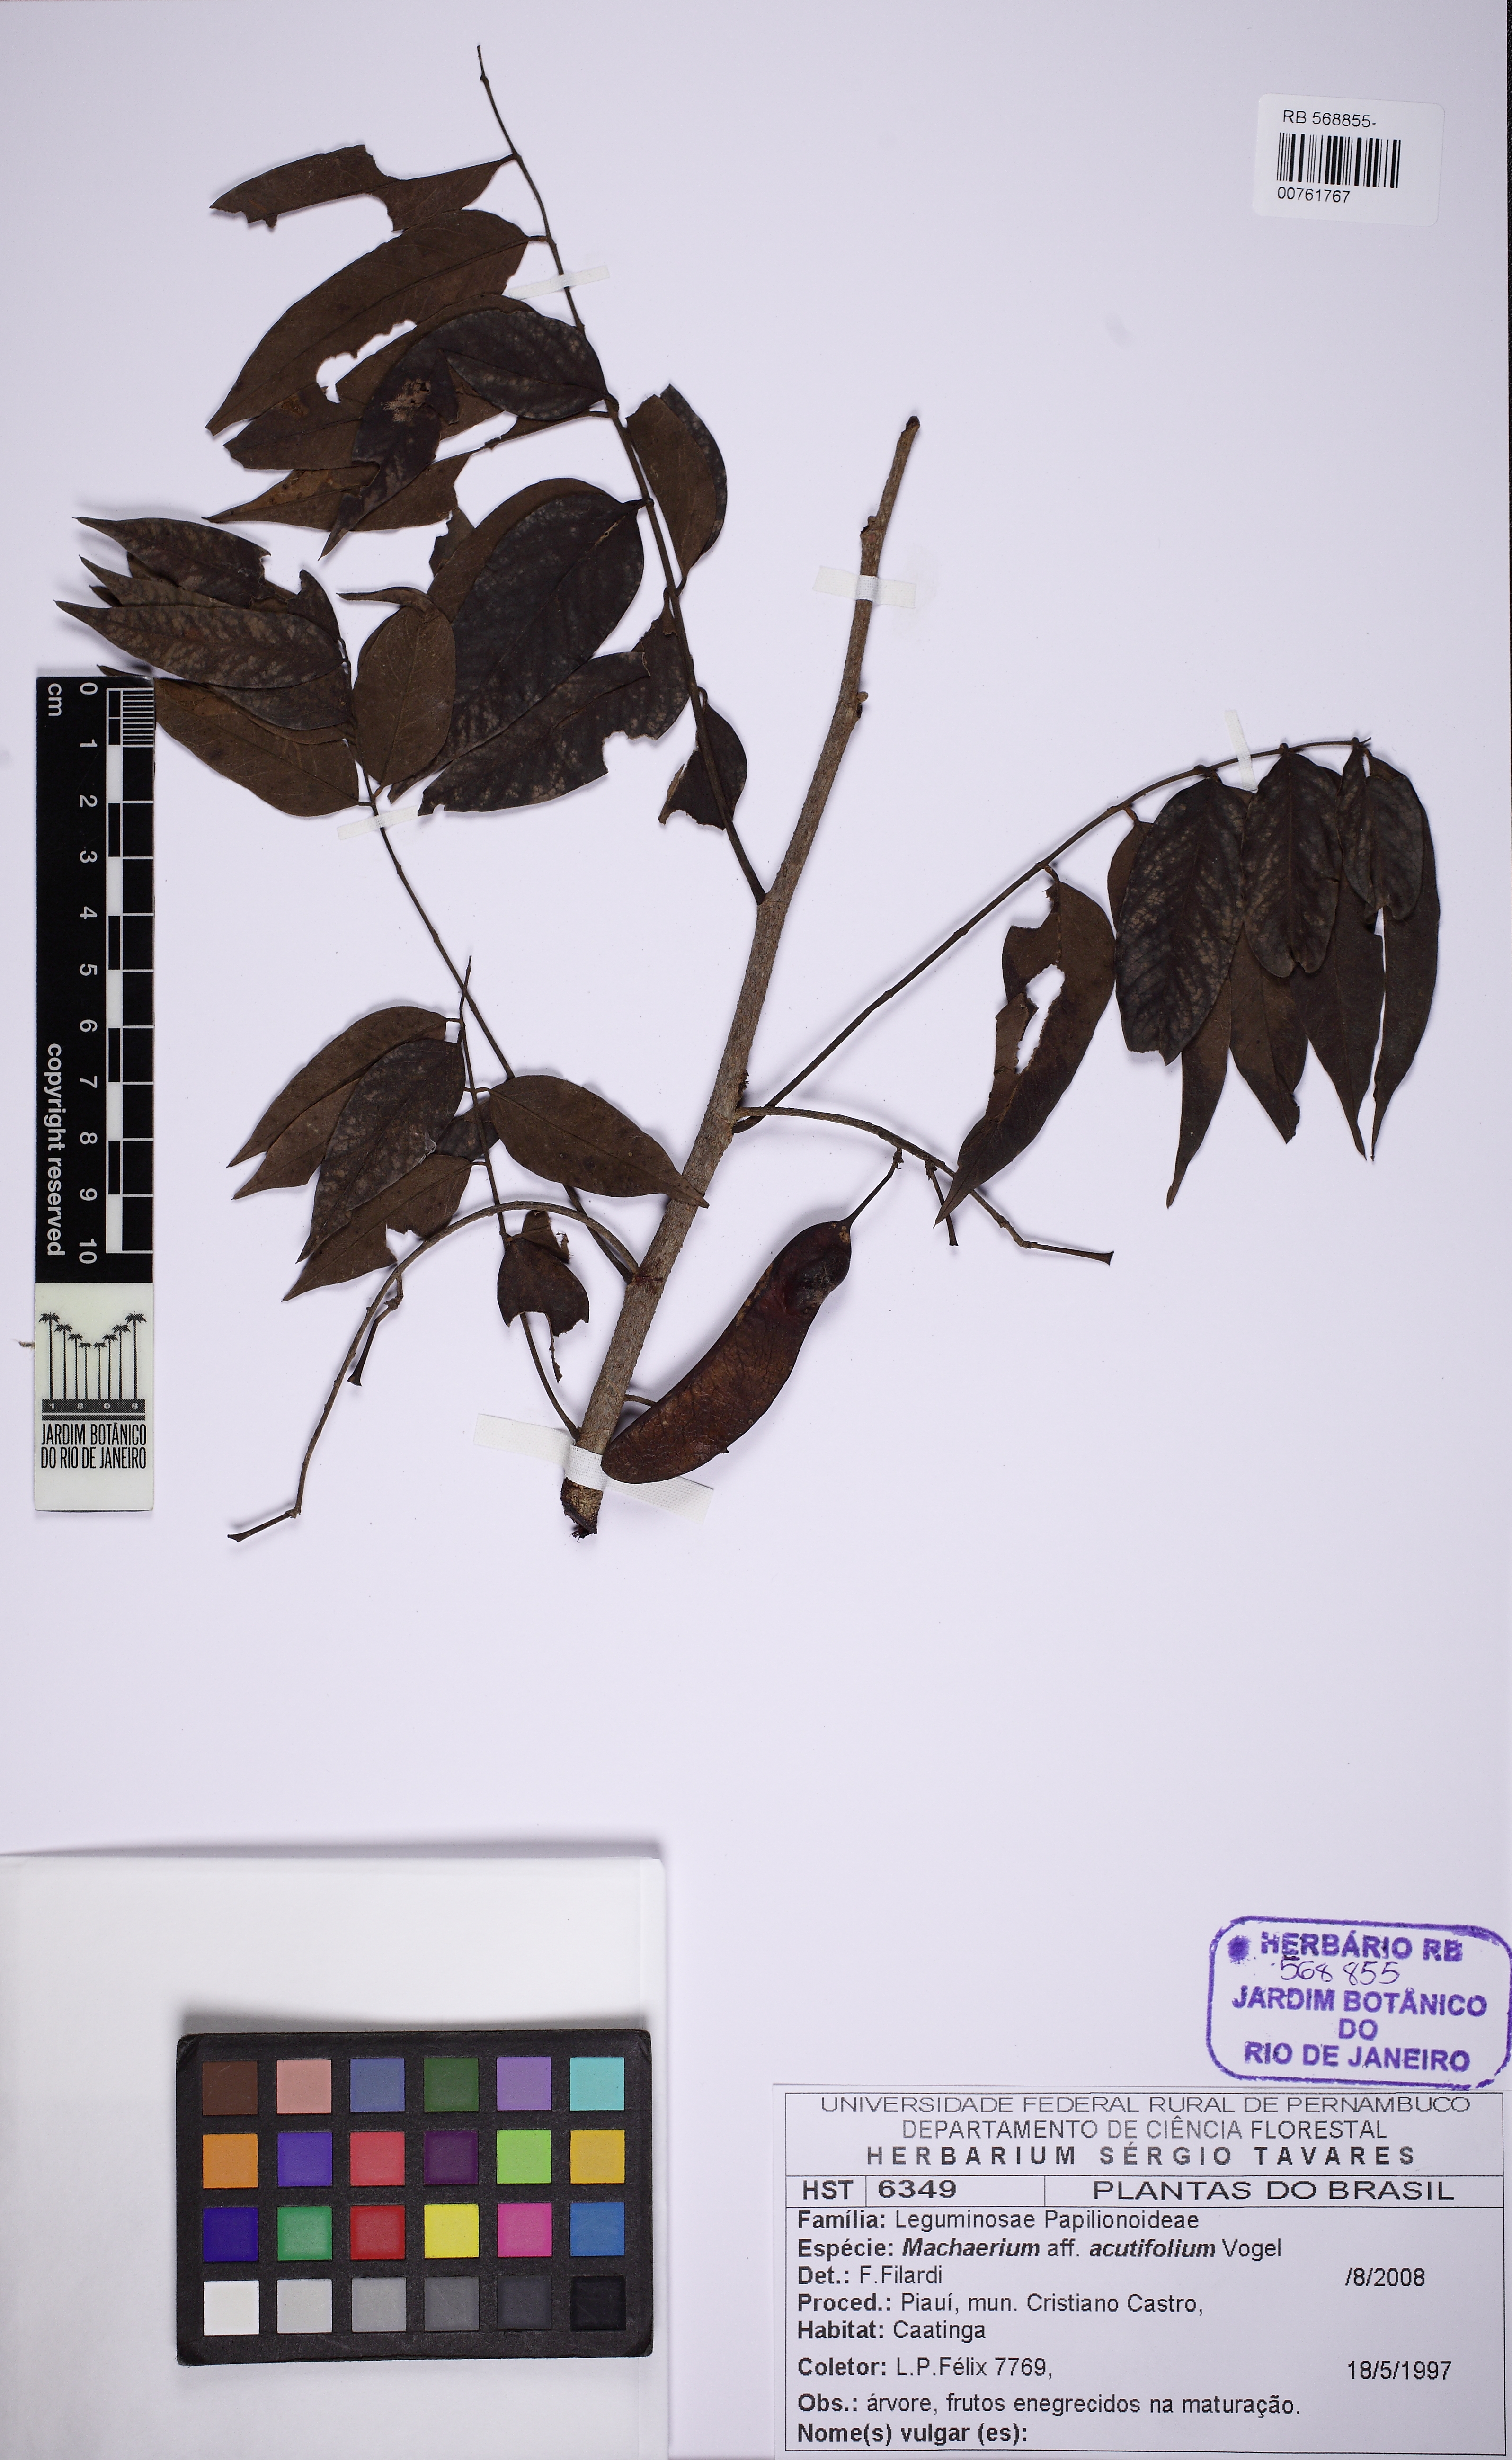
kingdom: Plantae
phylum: Tracheophyta
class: Magnoliopsida
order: Fabales
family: Fabaceae
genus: Machaerium
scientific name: Machaerium acutifolium
